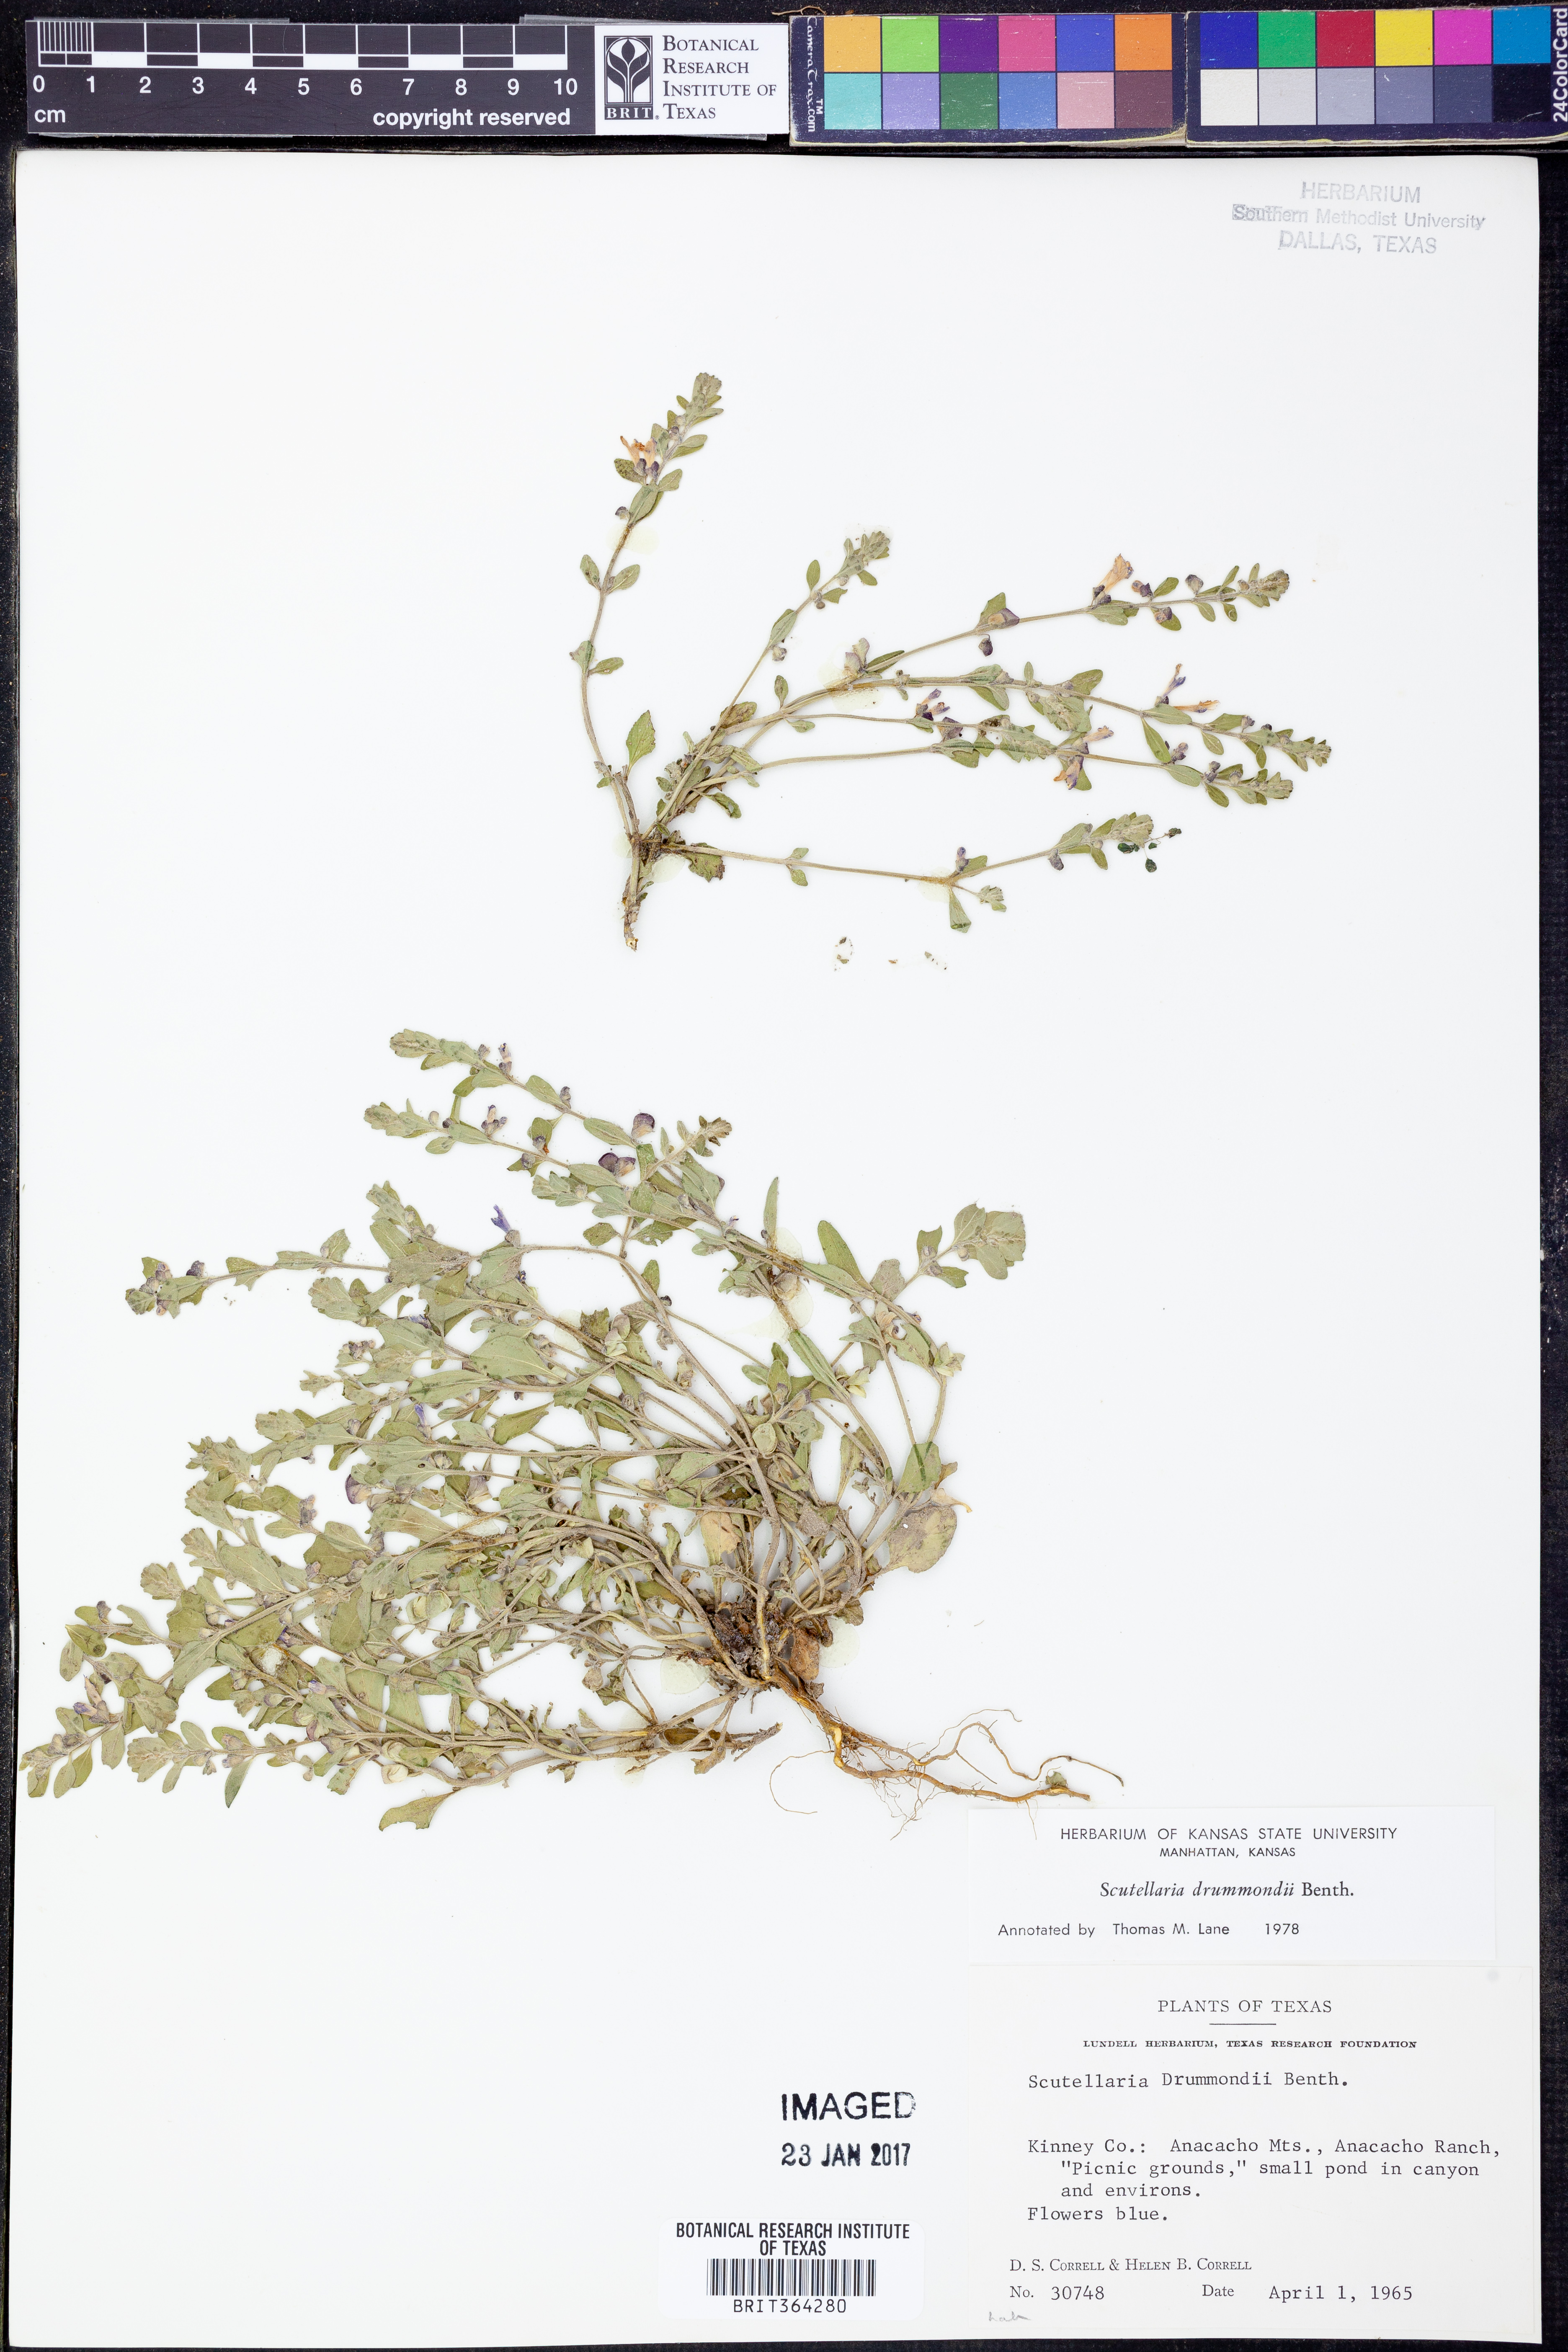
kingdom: Plantae
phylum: Tracheophyta
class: Magnoliopsida
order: Lamiales
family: Lamiaceae
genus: Scutellaria
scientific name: Scutellaria drummondii
